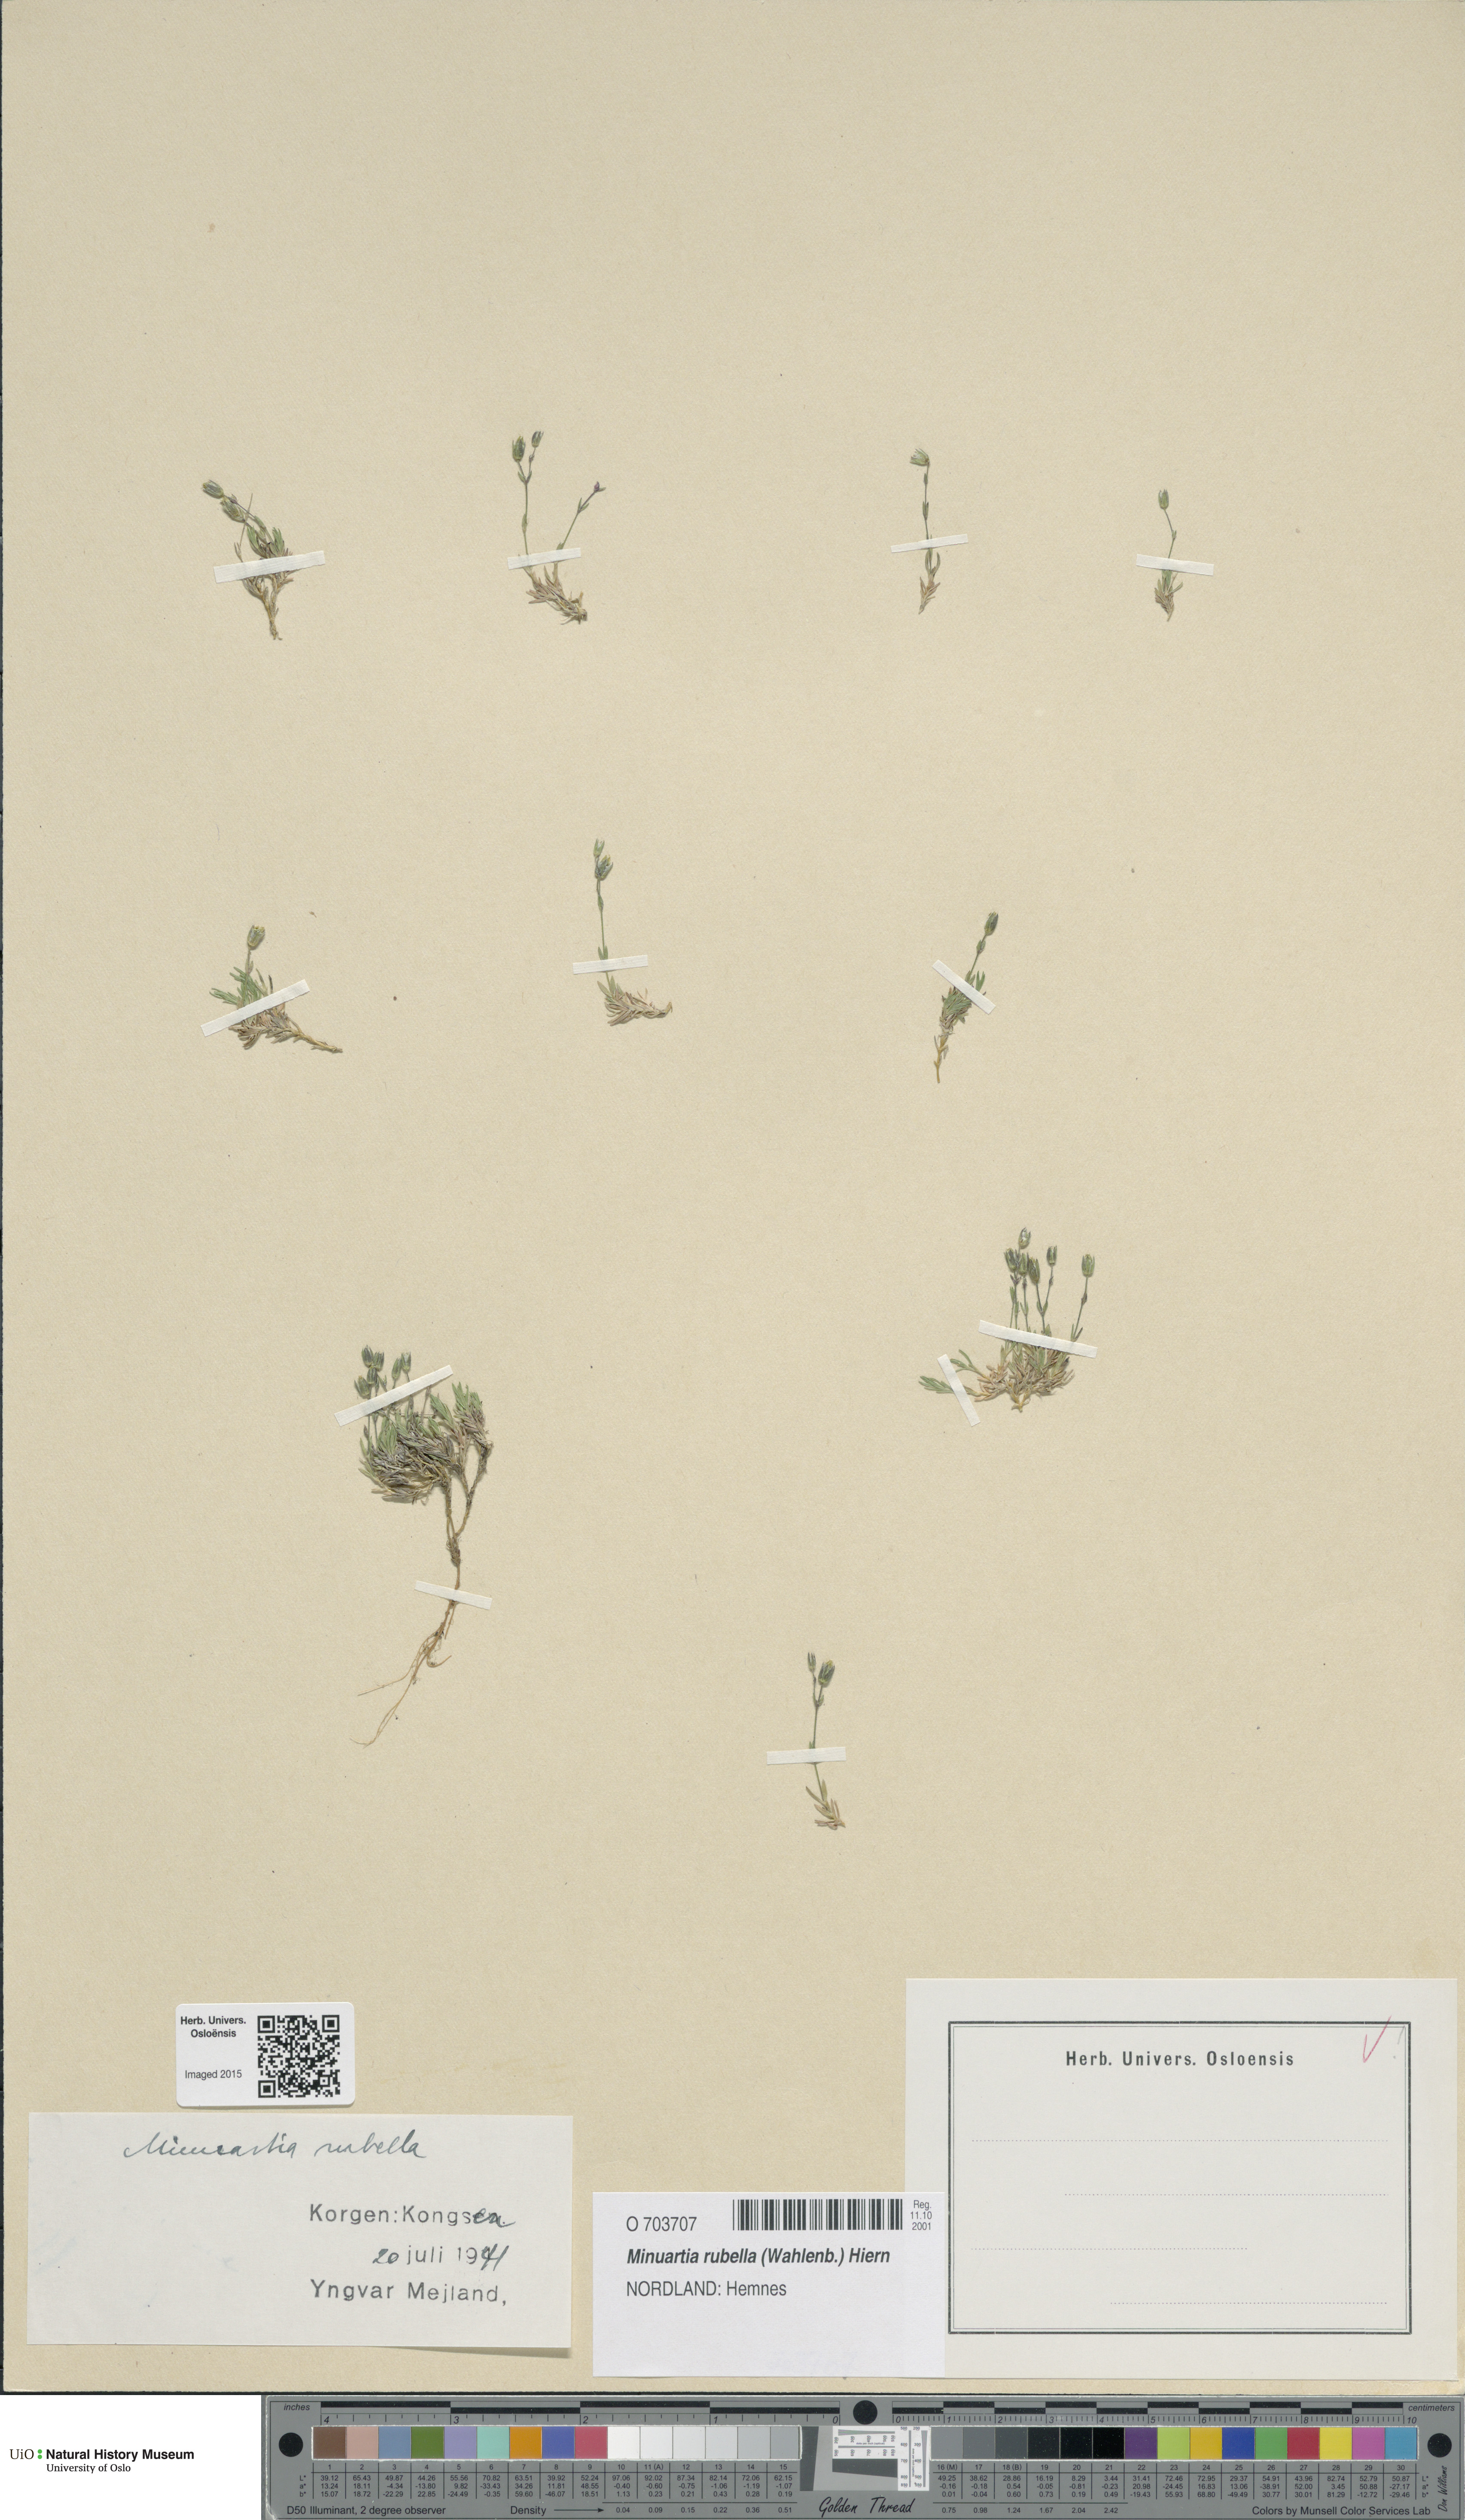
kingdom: Plantae
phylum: Tracheophyta
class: Magnoliopsida
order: Caryophyllales
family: Caryophyllaceae
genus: Sabulina
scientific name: Sabulina rubella
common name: Beautiful sandwort
